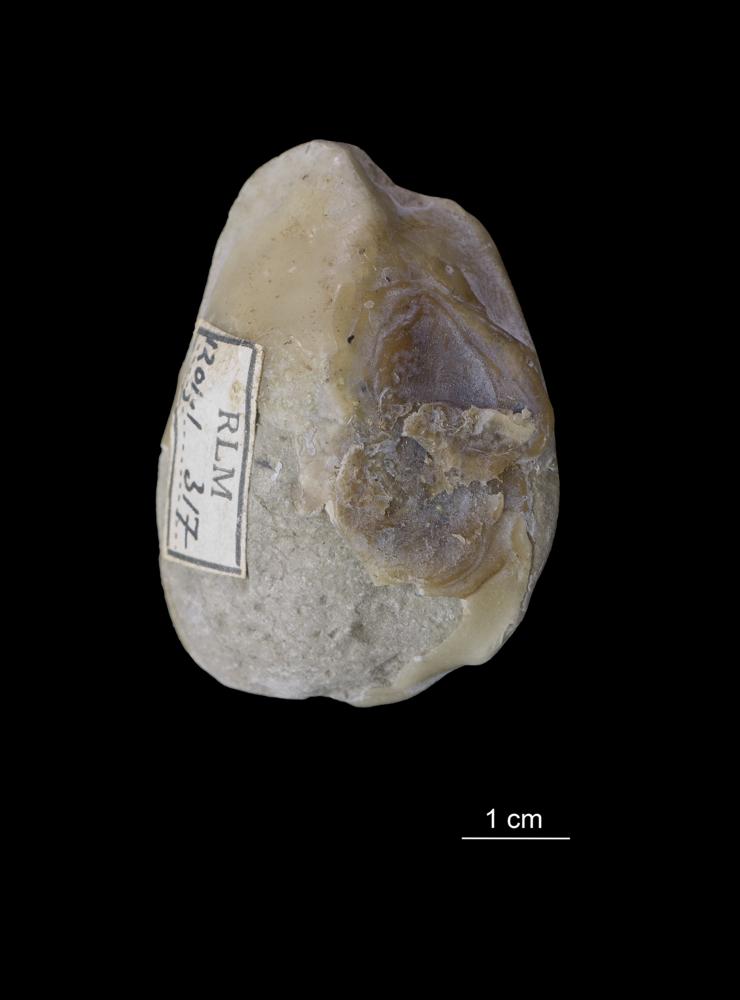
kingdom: Animalia
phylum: Mollusca
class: Bivalvia
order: Solemyida
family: Ctenodontidae
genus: Ctenodonta
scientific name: Ctenodonta
